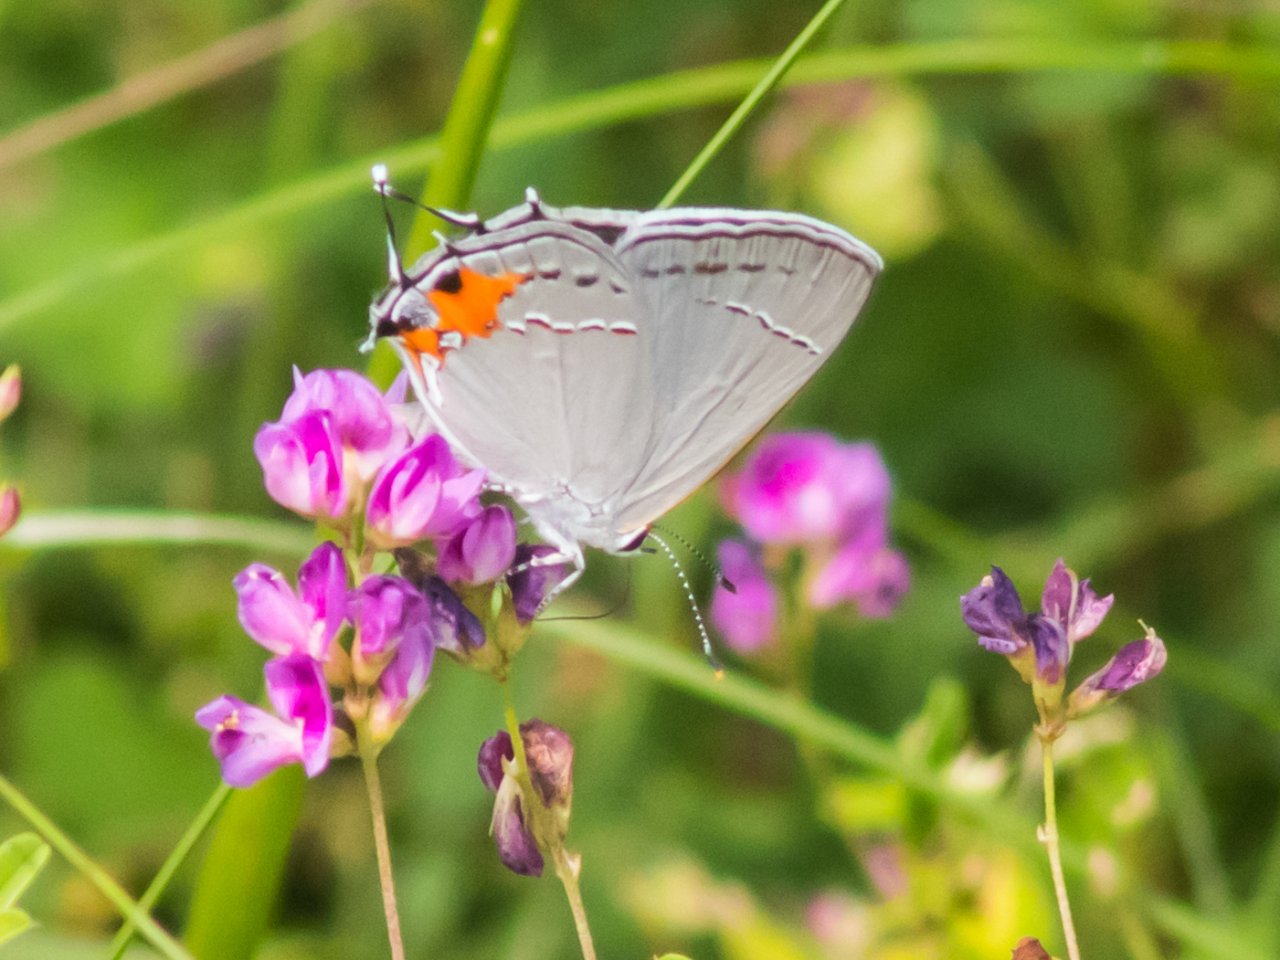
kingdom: Animalia
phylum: Arthropoda
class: Insecta
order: Lepidoptera
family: Lycaenidae
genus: Strymon
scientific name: Strymon melinus
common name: Gray Hairstreak
